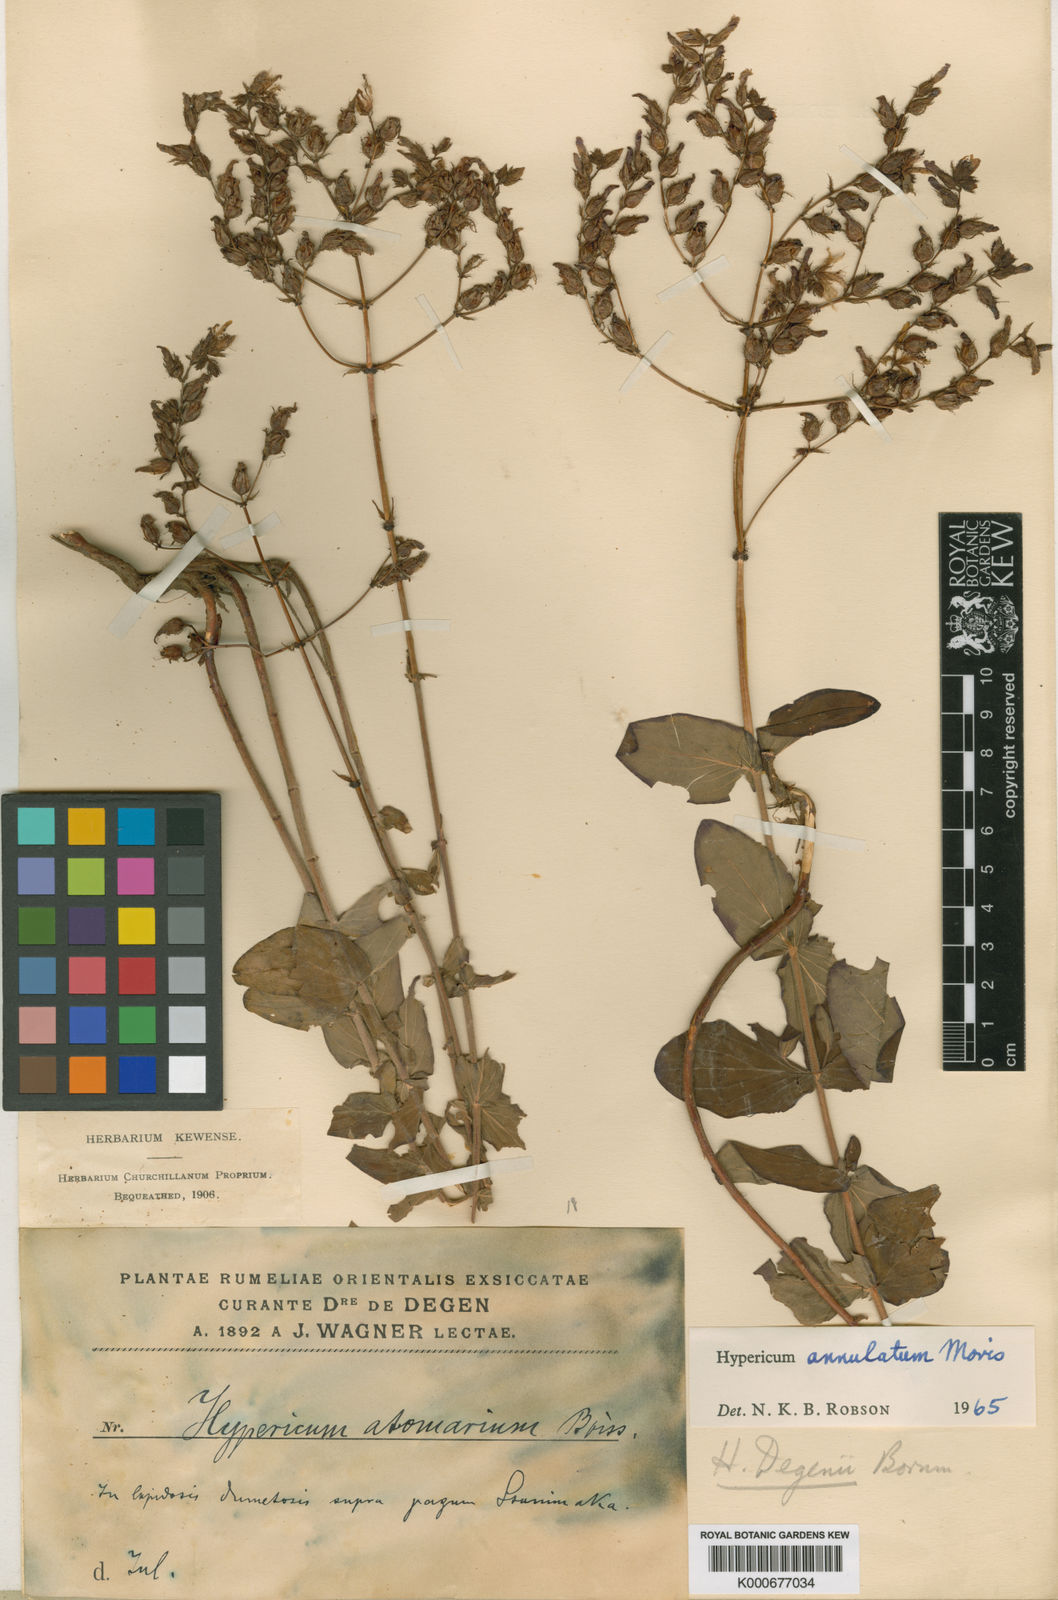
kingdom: Plantae
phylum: Tracheophyta
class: Magnoliopsida
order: Malpighiales
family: Hypericaceae
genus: Hypericum
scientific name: Hypericum annulatum
